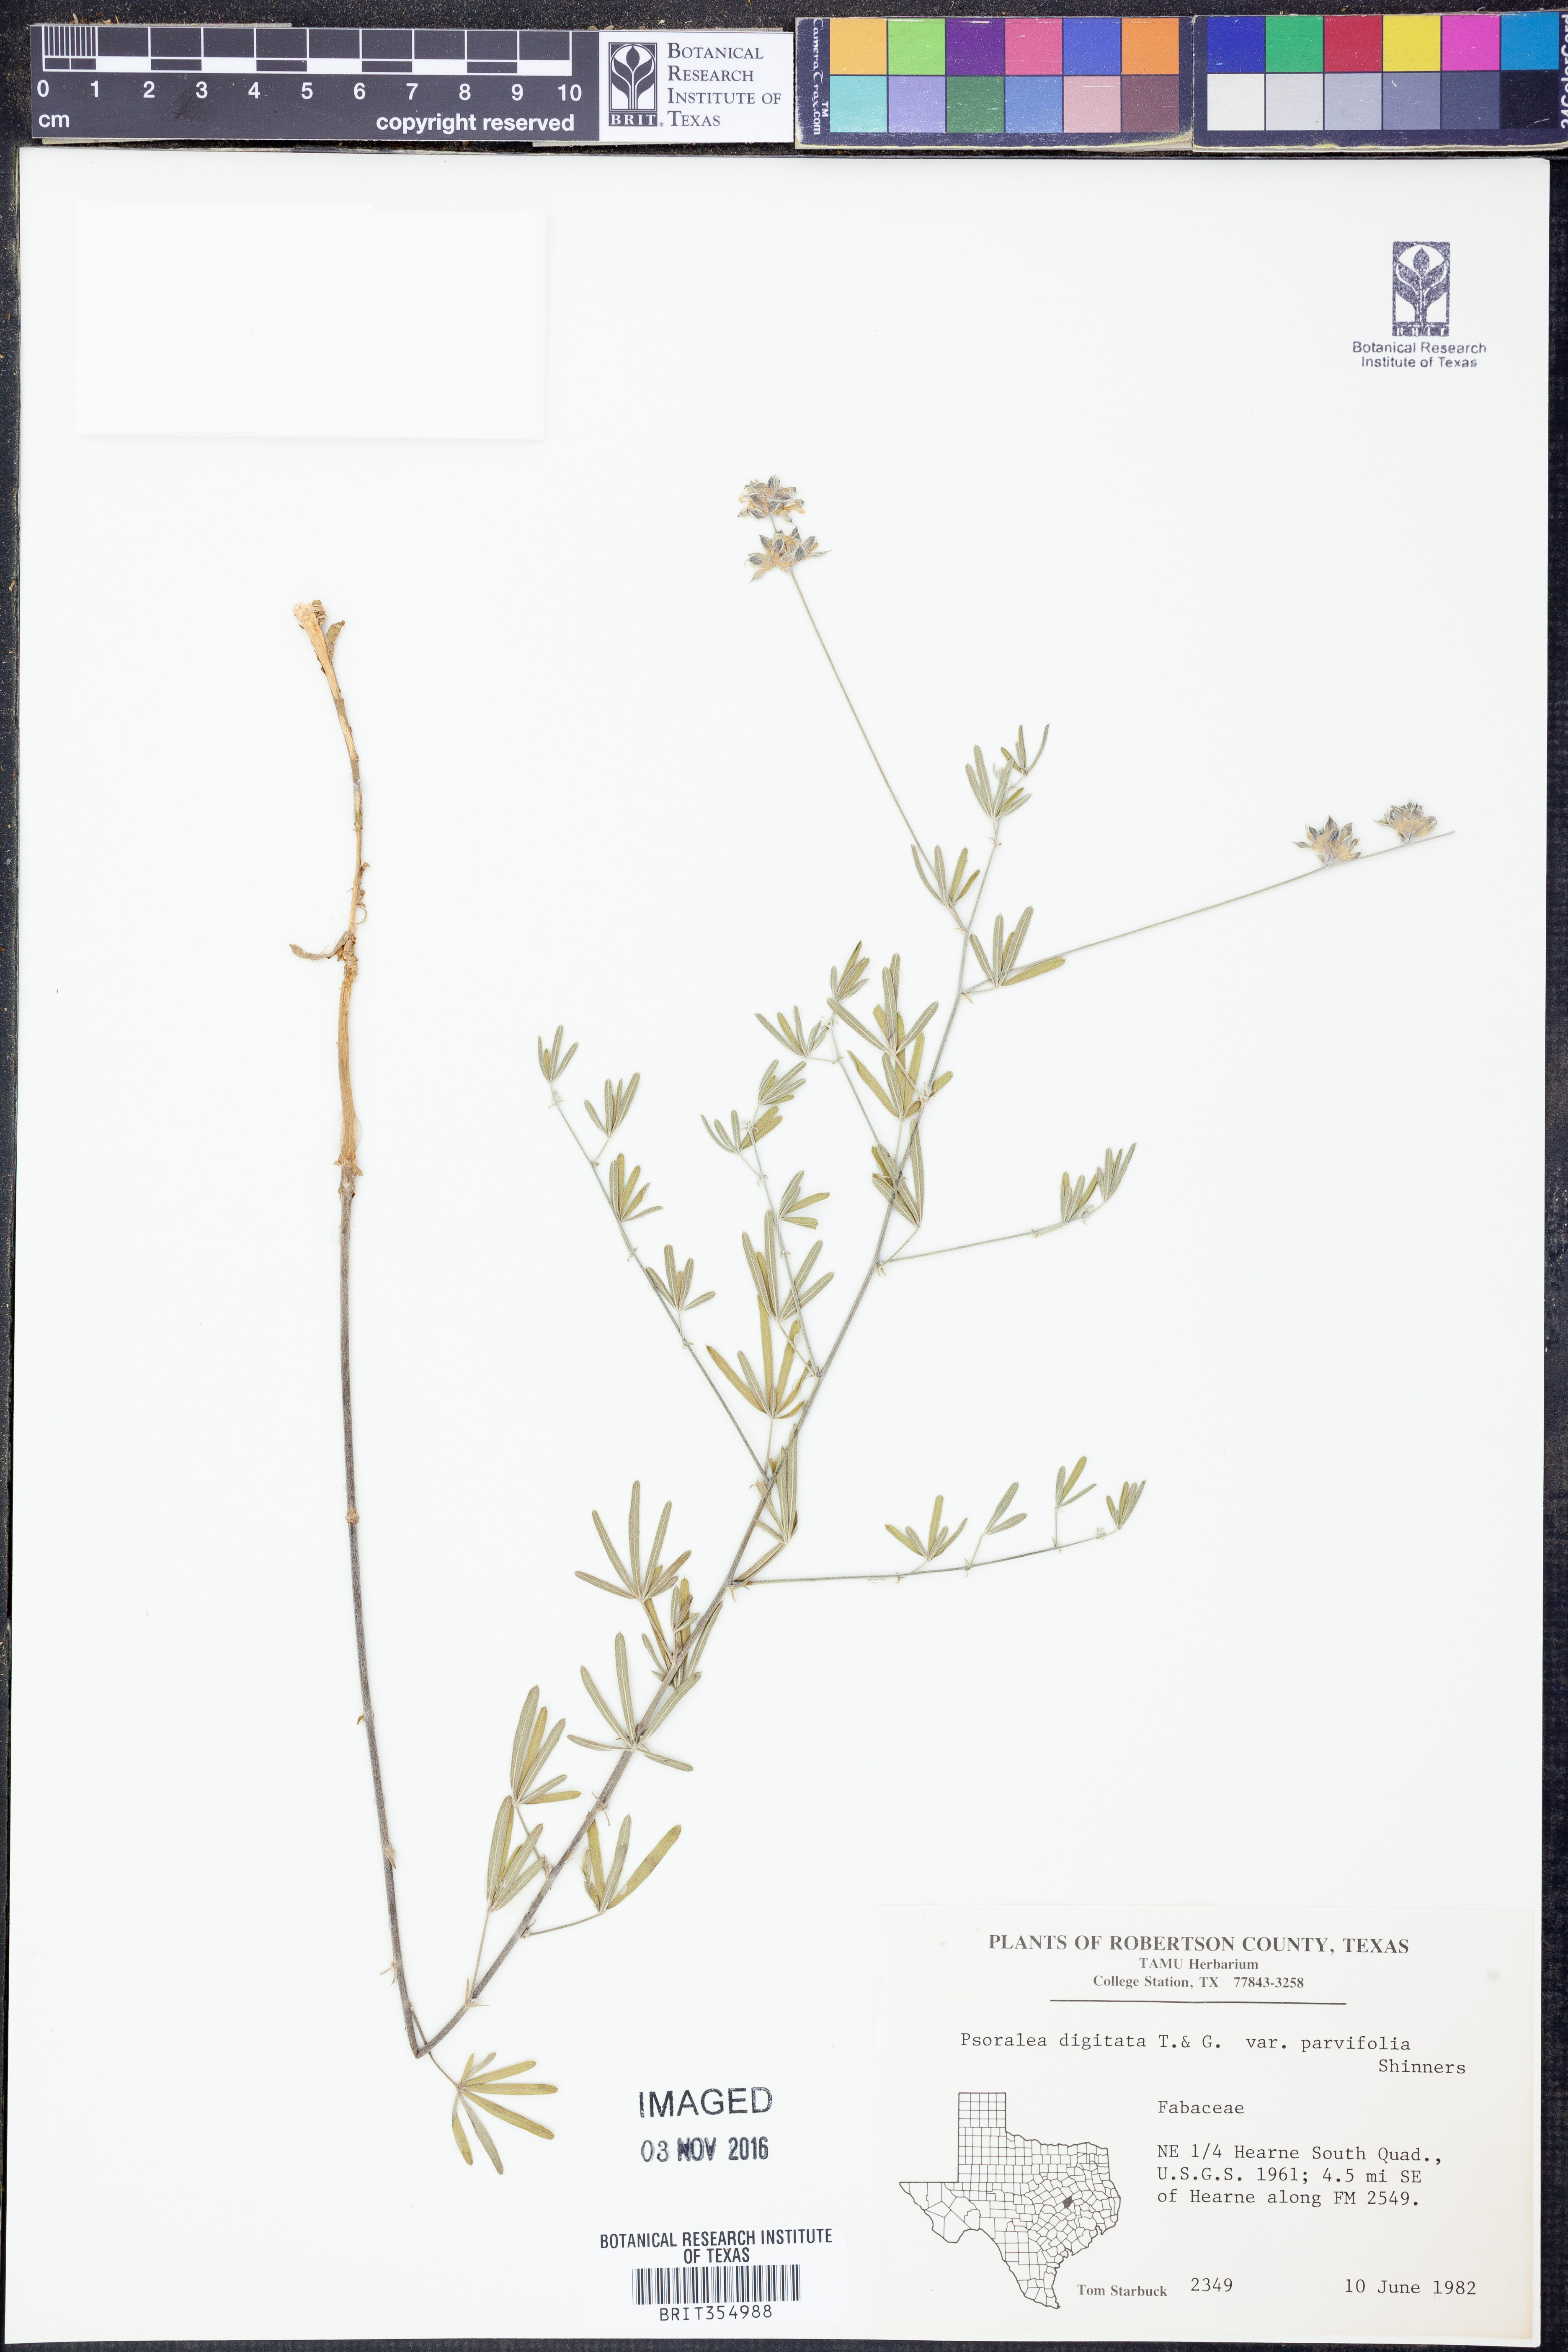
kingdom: Plantae
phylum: Tracheophyta
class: Magnoliopsida
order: Fabales
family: Fabaceae
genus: Pediomelum
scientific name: Pediomelum digitatum
